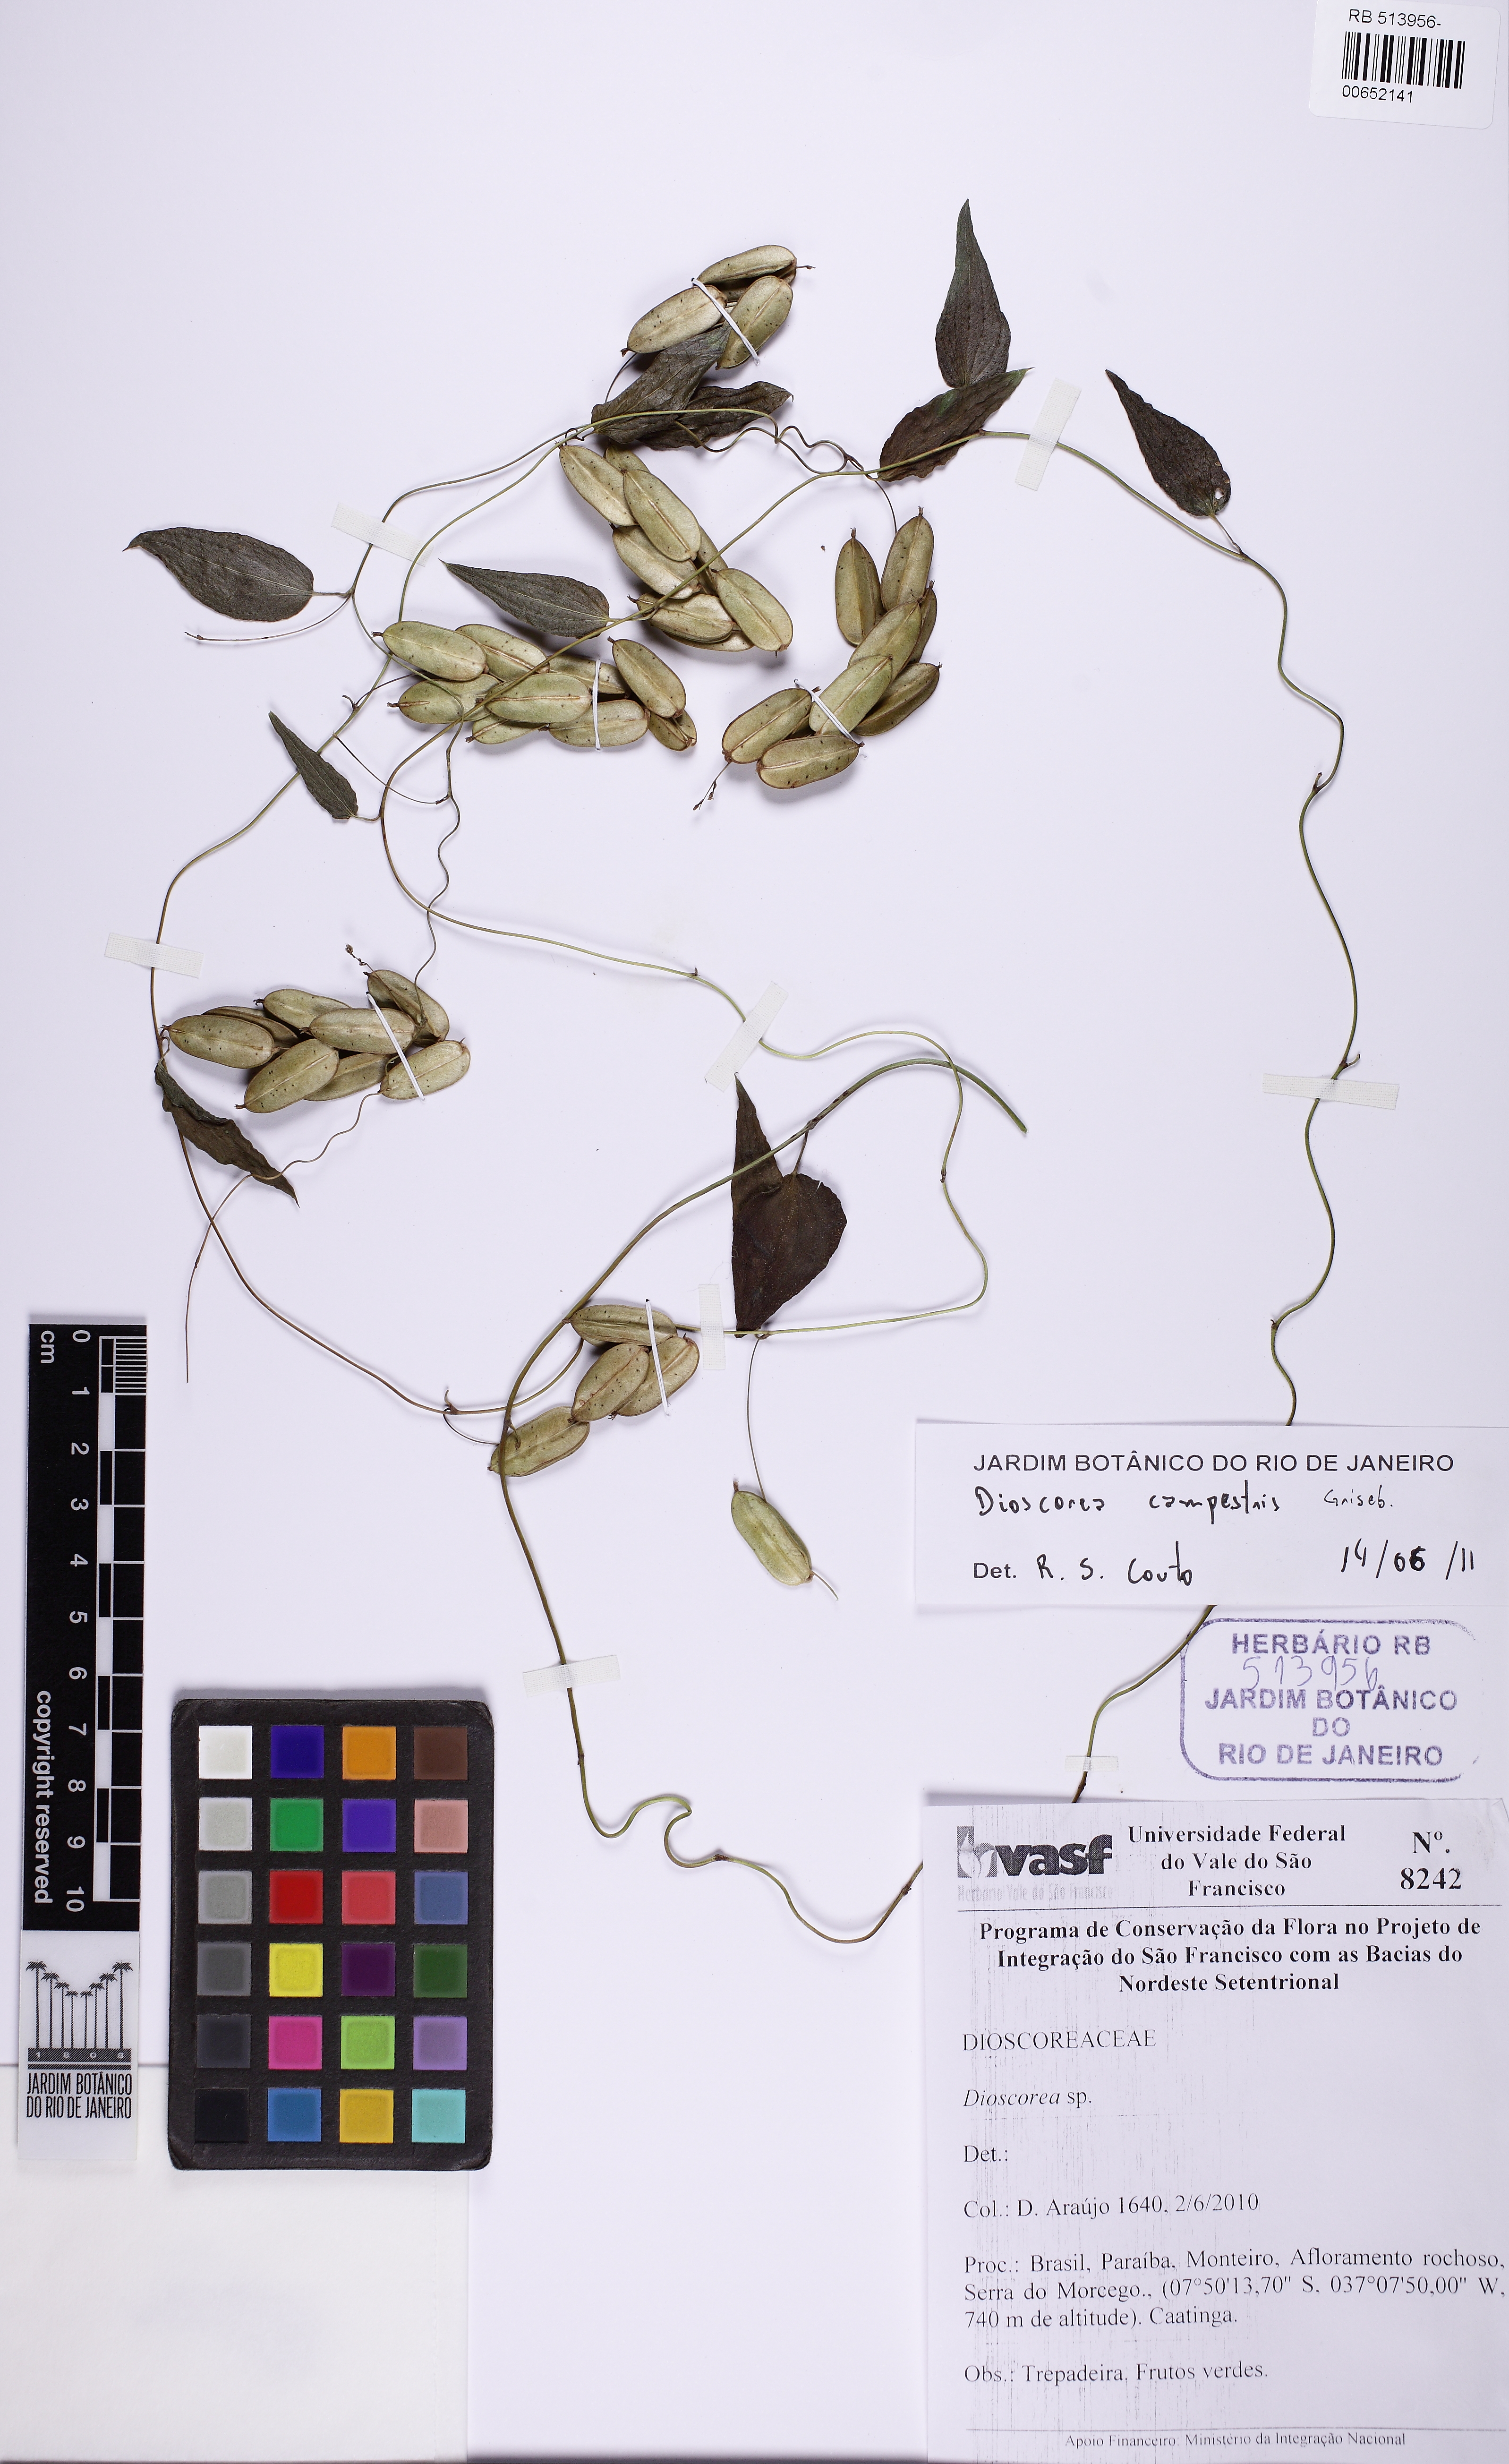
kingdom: Plantae
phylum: Tracheophyta
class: Liliopsida
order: Dioscoreales
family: Dioscoreaceae
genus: Dioscorea
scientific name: Dioscorea campestris
